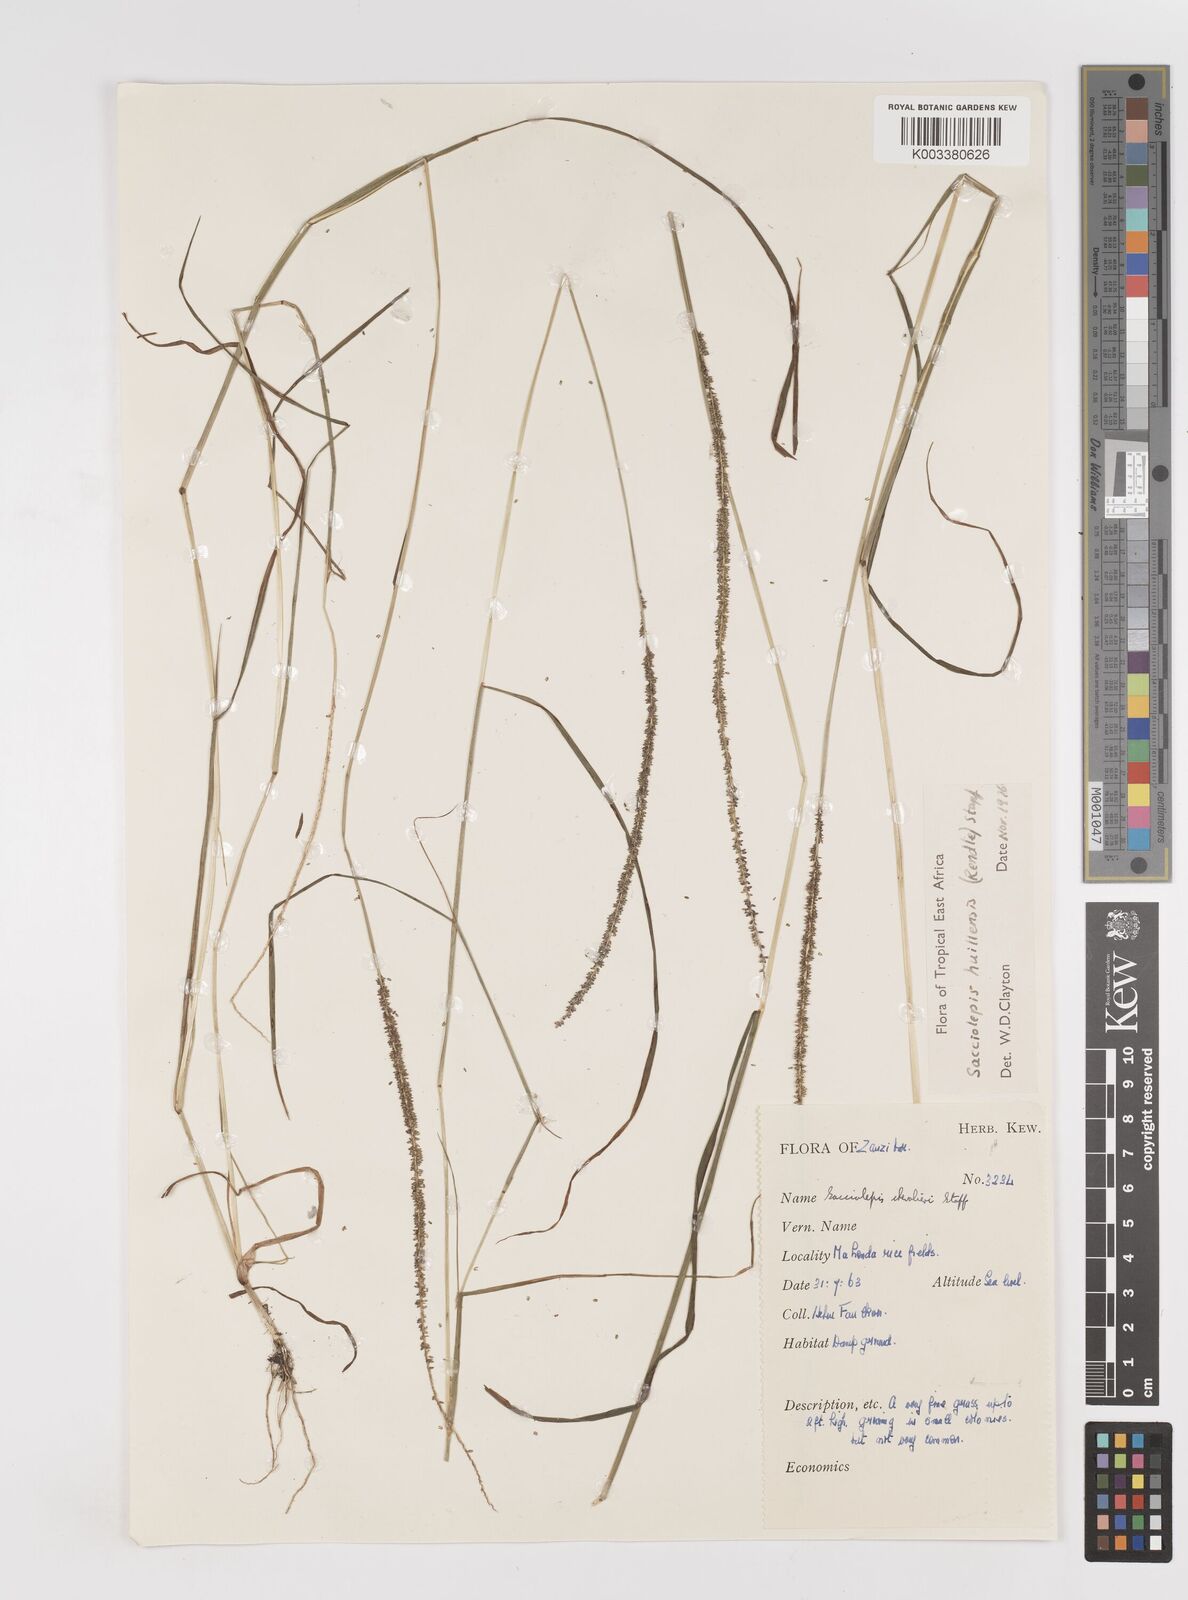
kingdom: Plantae
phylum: Tracheophyta
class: Liliopsida
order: Poales
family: Poaceae
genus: Sacciolepis
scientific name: Sacciolepis myosuroides
